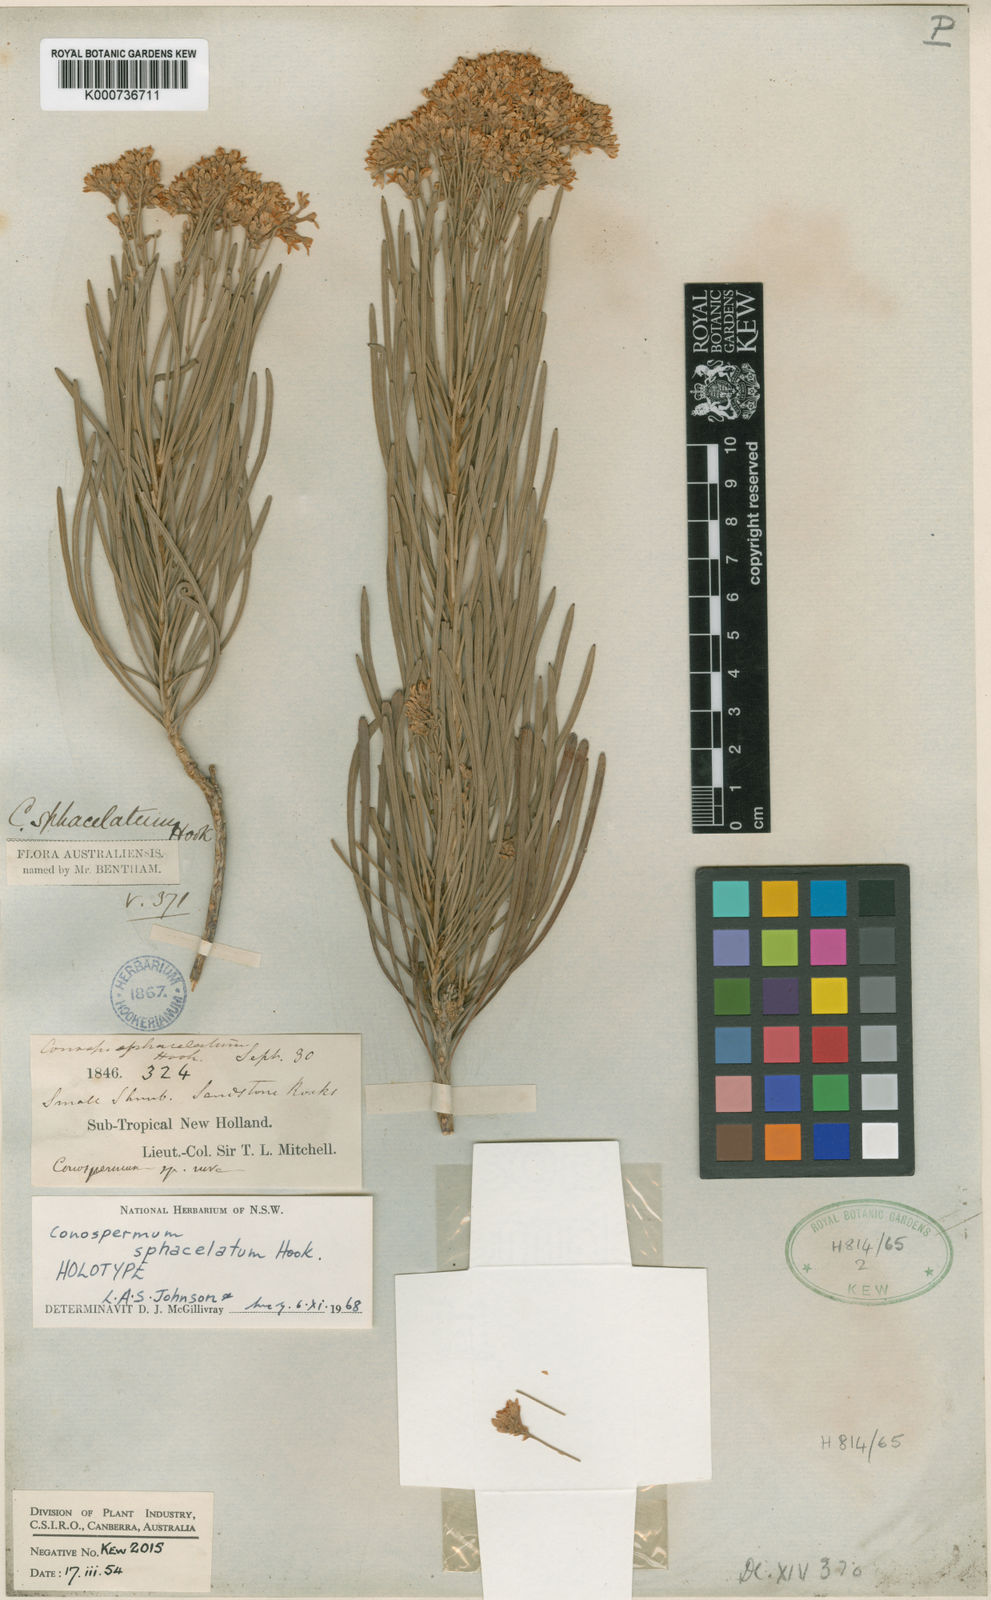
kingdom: Plantae
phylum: Tracheophyta
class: Magnoliopsida
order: Proteales
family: Proteaceae
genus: Conospermum
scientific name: Conospermum sphacelatum
